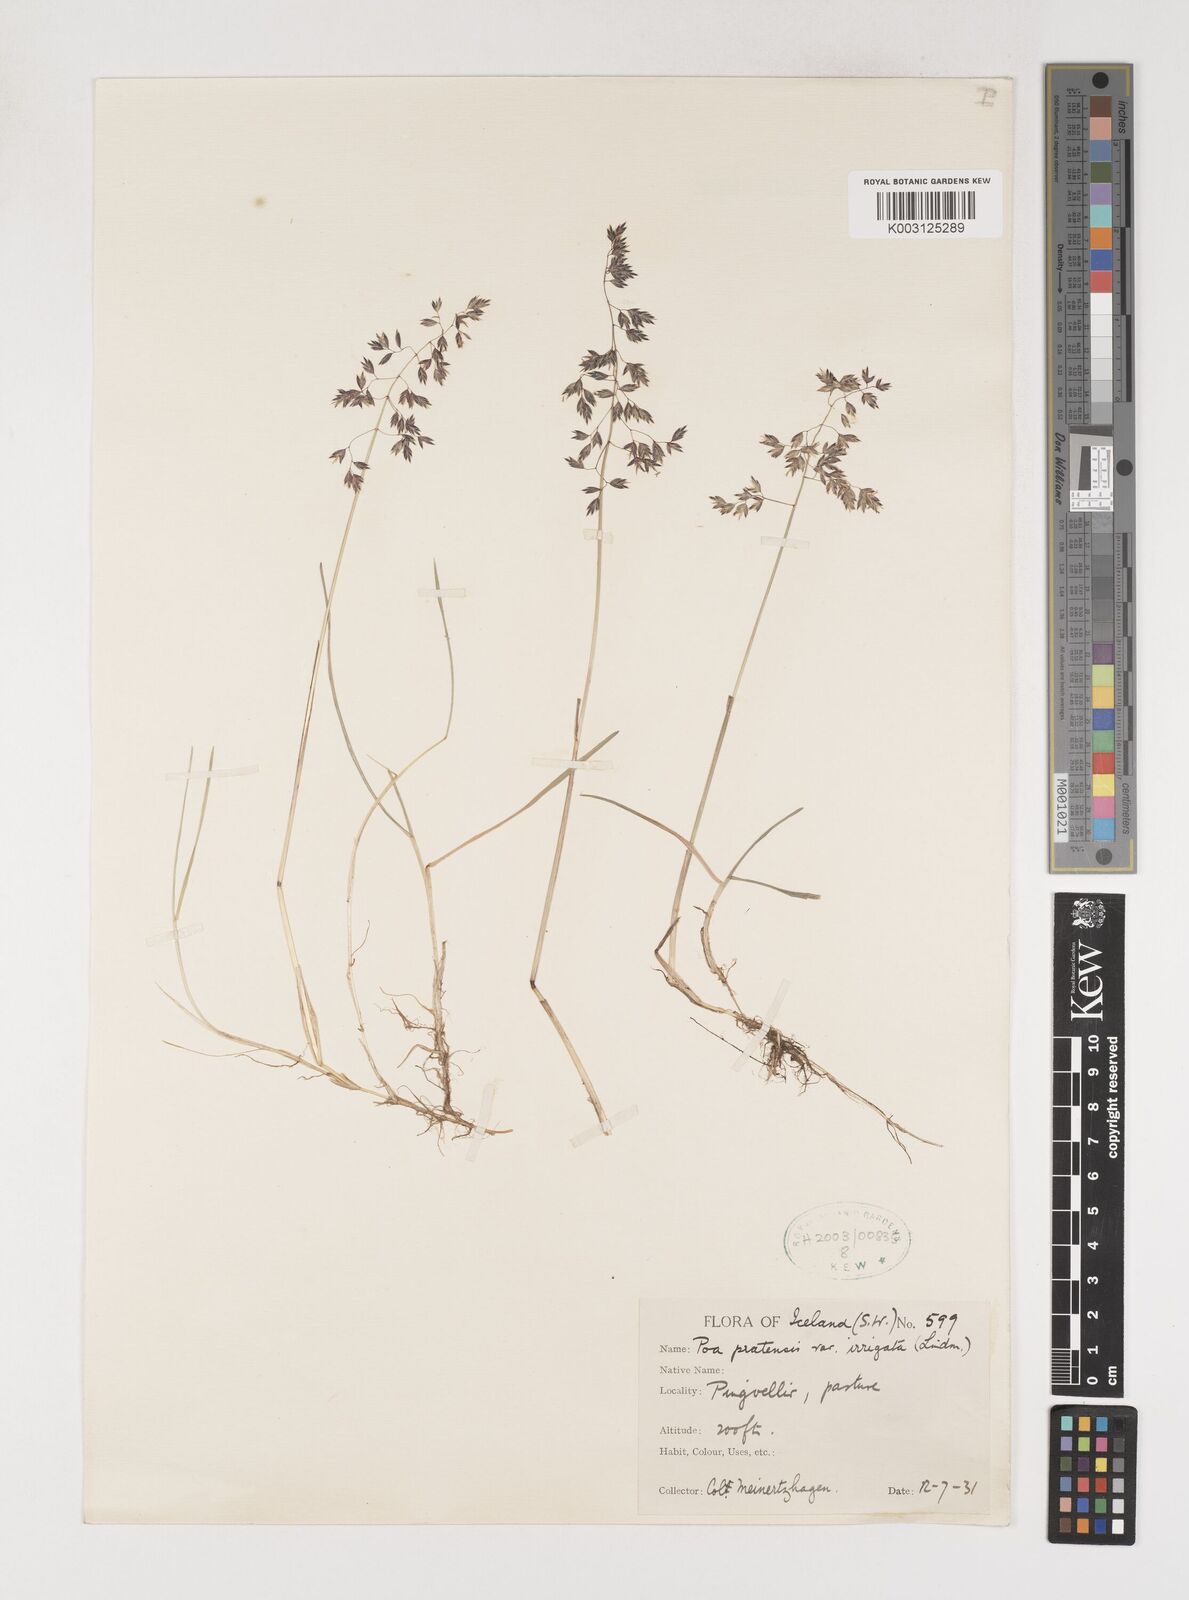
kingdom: Plantae
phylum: Tracheophyta
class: Liliopsida
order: Poales
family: Poaceae
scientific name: Poaceae
